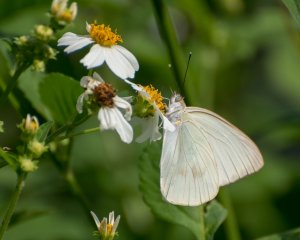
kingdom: Animalia
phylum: Arthropoda
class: Insecta
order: Lepidoptera
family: Pieridae
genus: Ascia
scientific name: Ascia monuste
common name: Great Southern White
